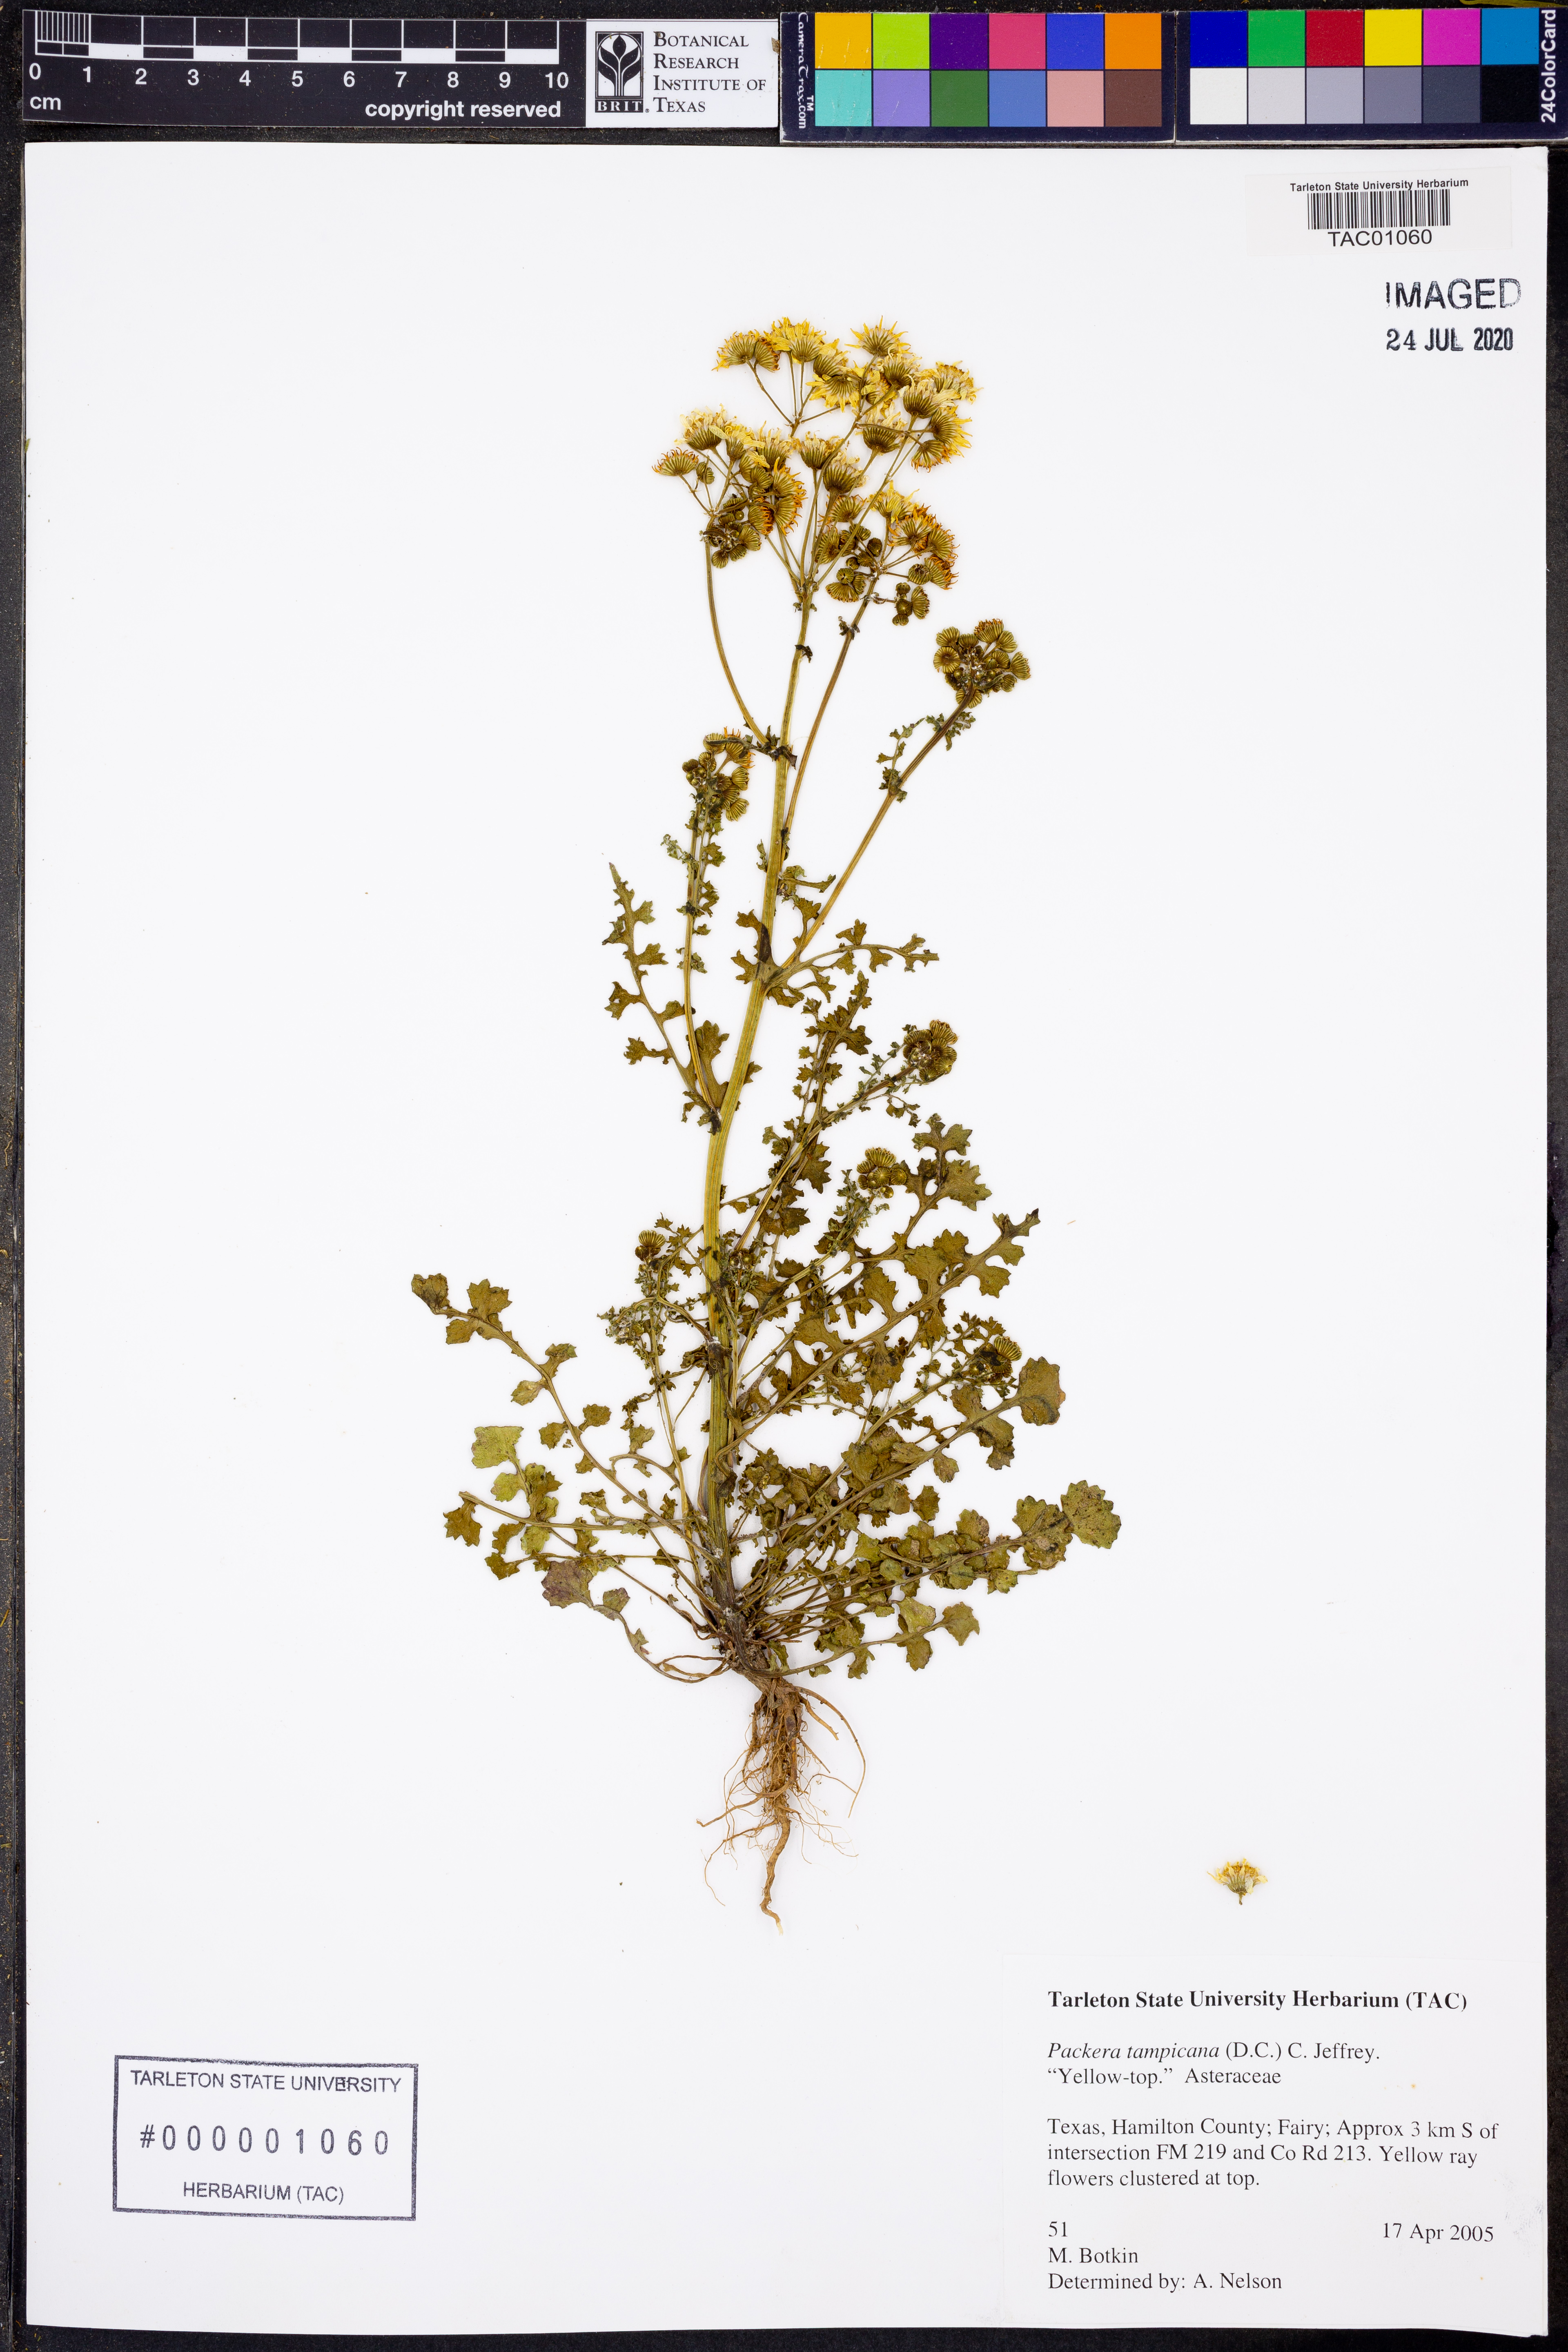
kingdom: Plantae
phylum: Tracheophyta
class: Magnoliopsida
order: Asterales
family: Asteraceae
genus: Packera
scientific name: Packera tampicana
